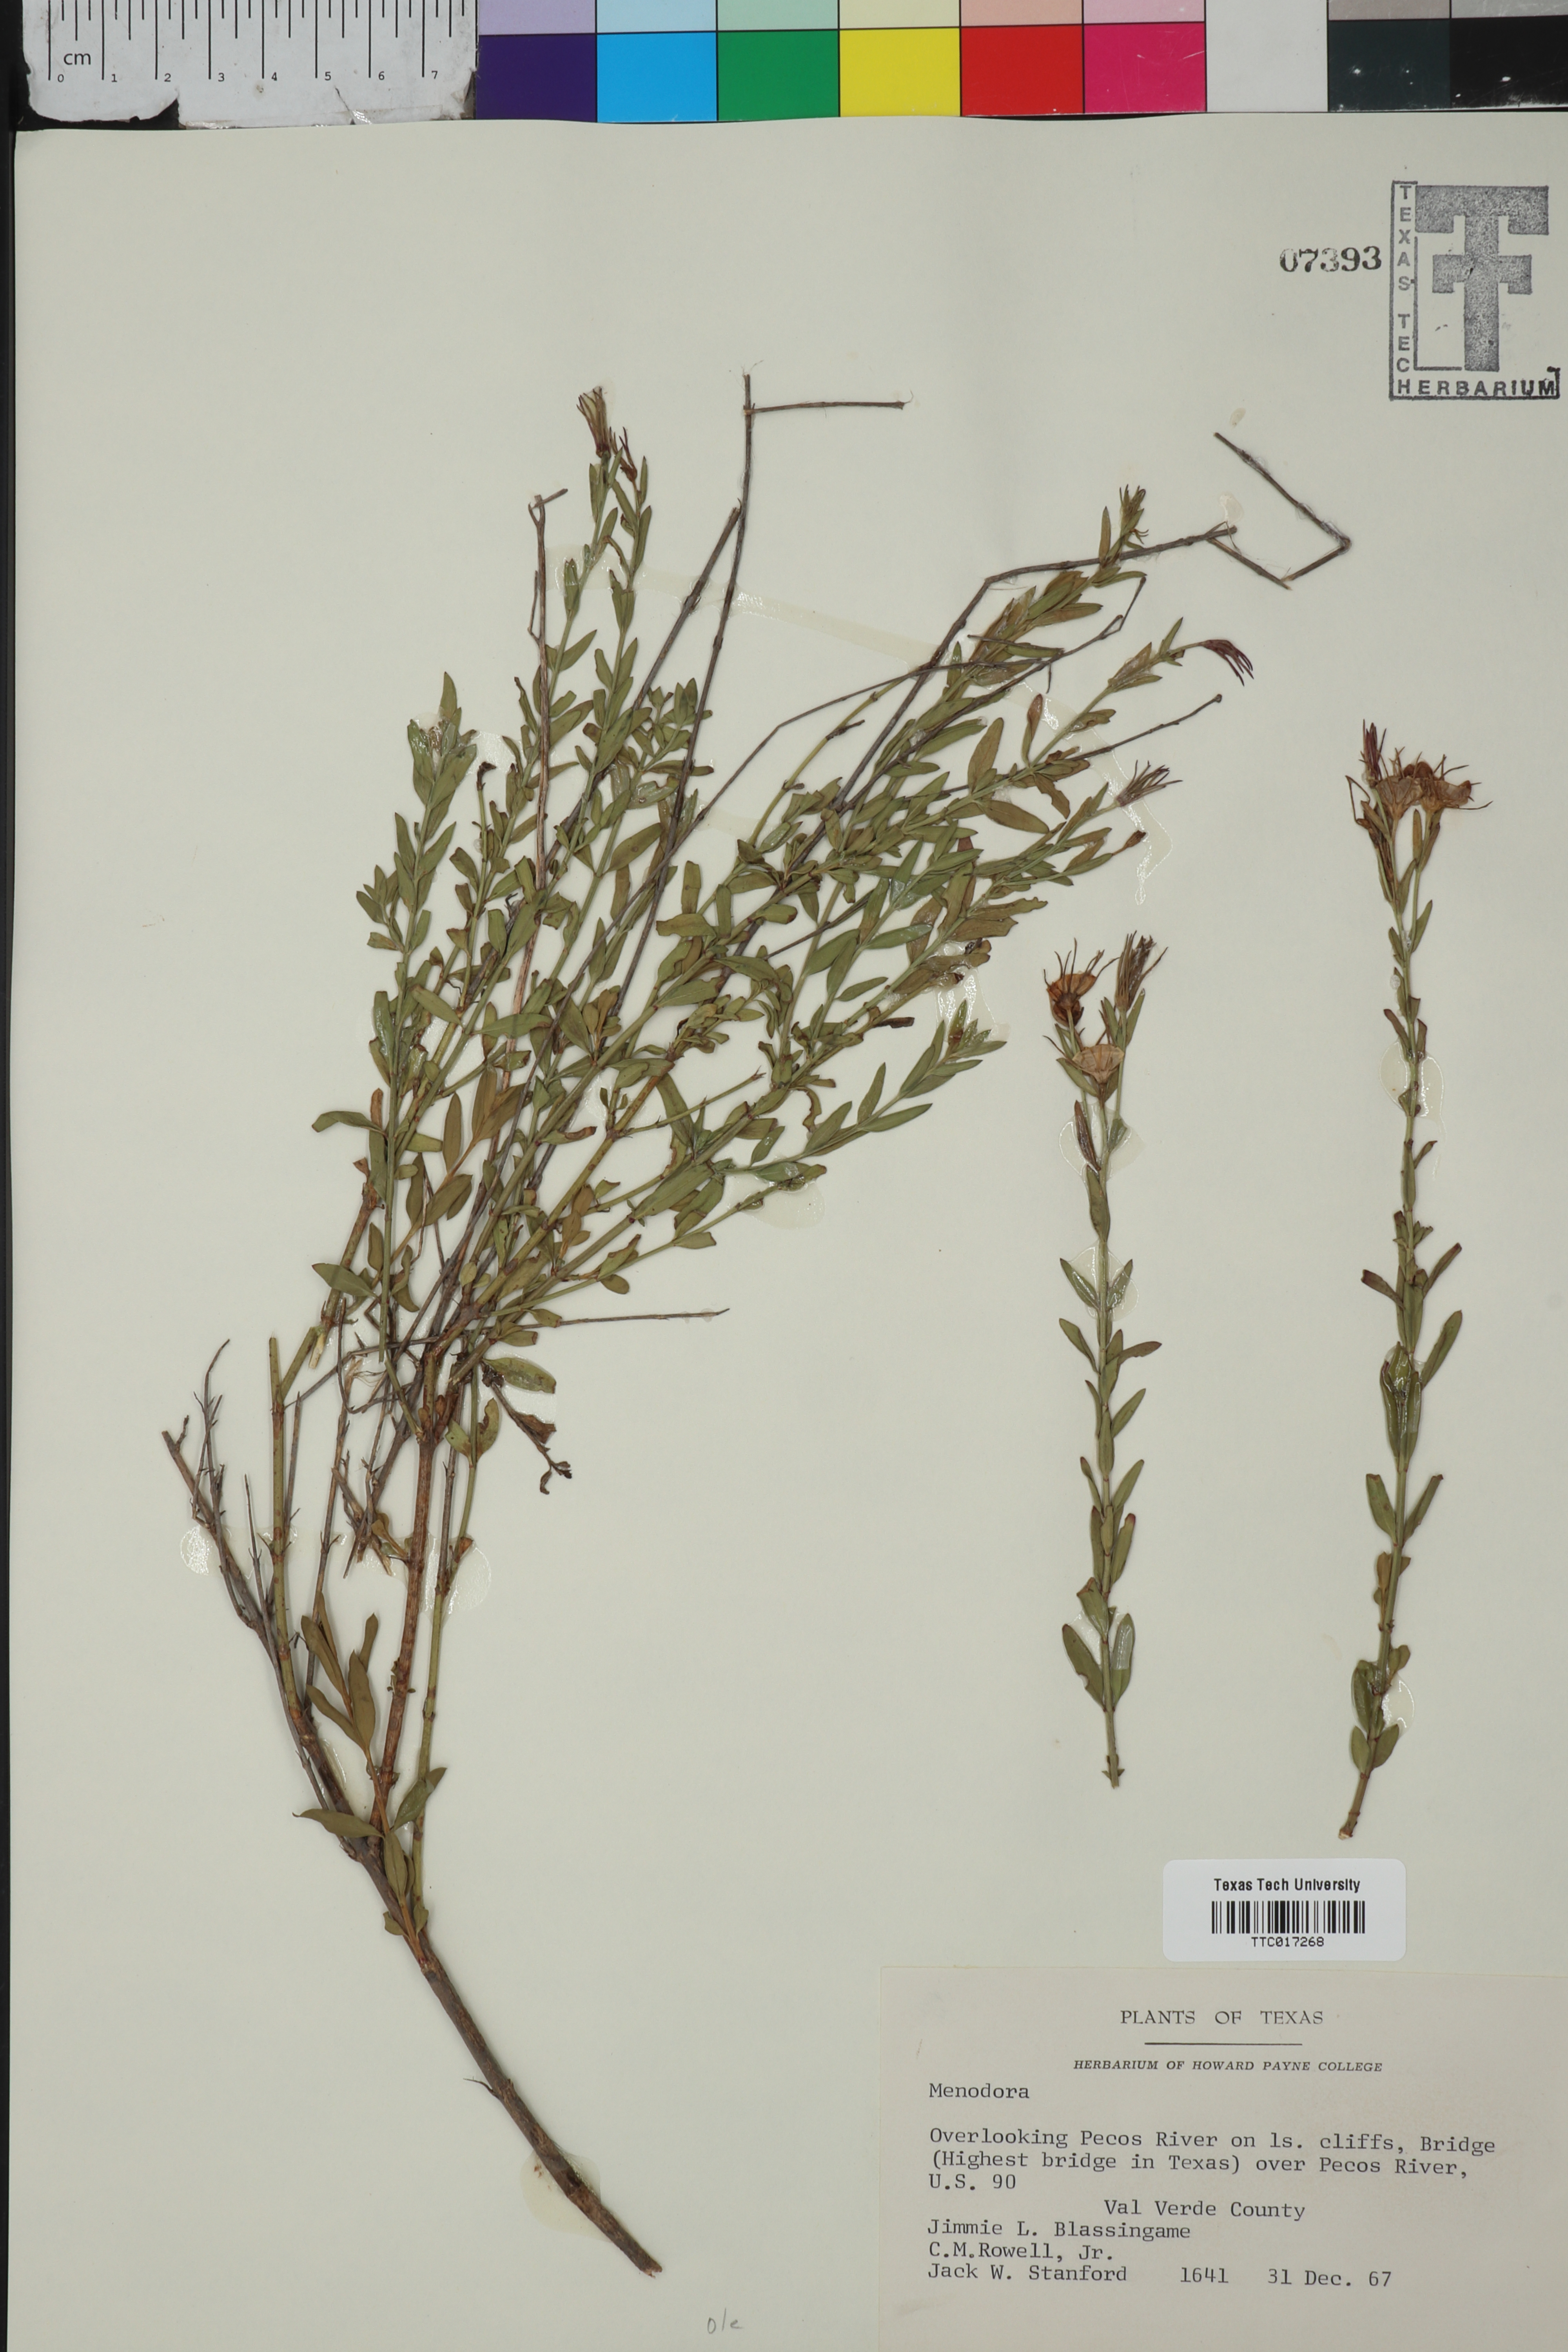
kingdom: Plantae
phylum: Tracheophyta
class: Magnoliopsida
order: Lamiales
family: Oleaceae
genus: Menodora
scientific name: Menodora
